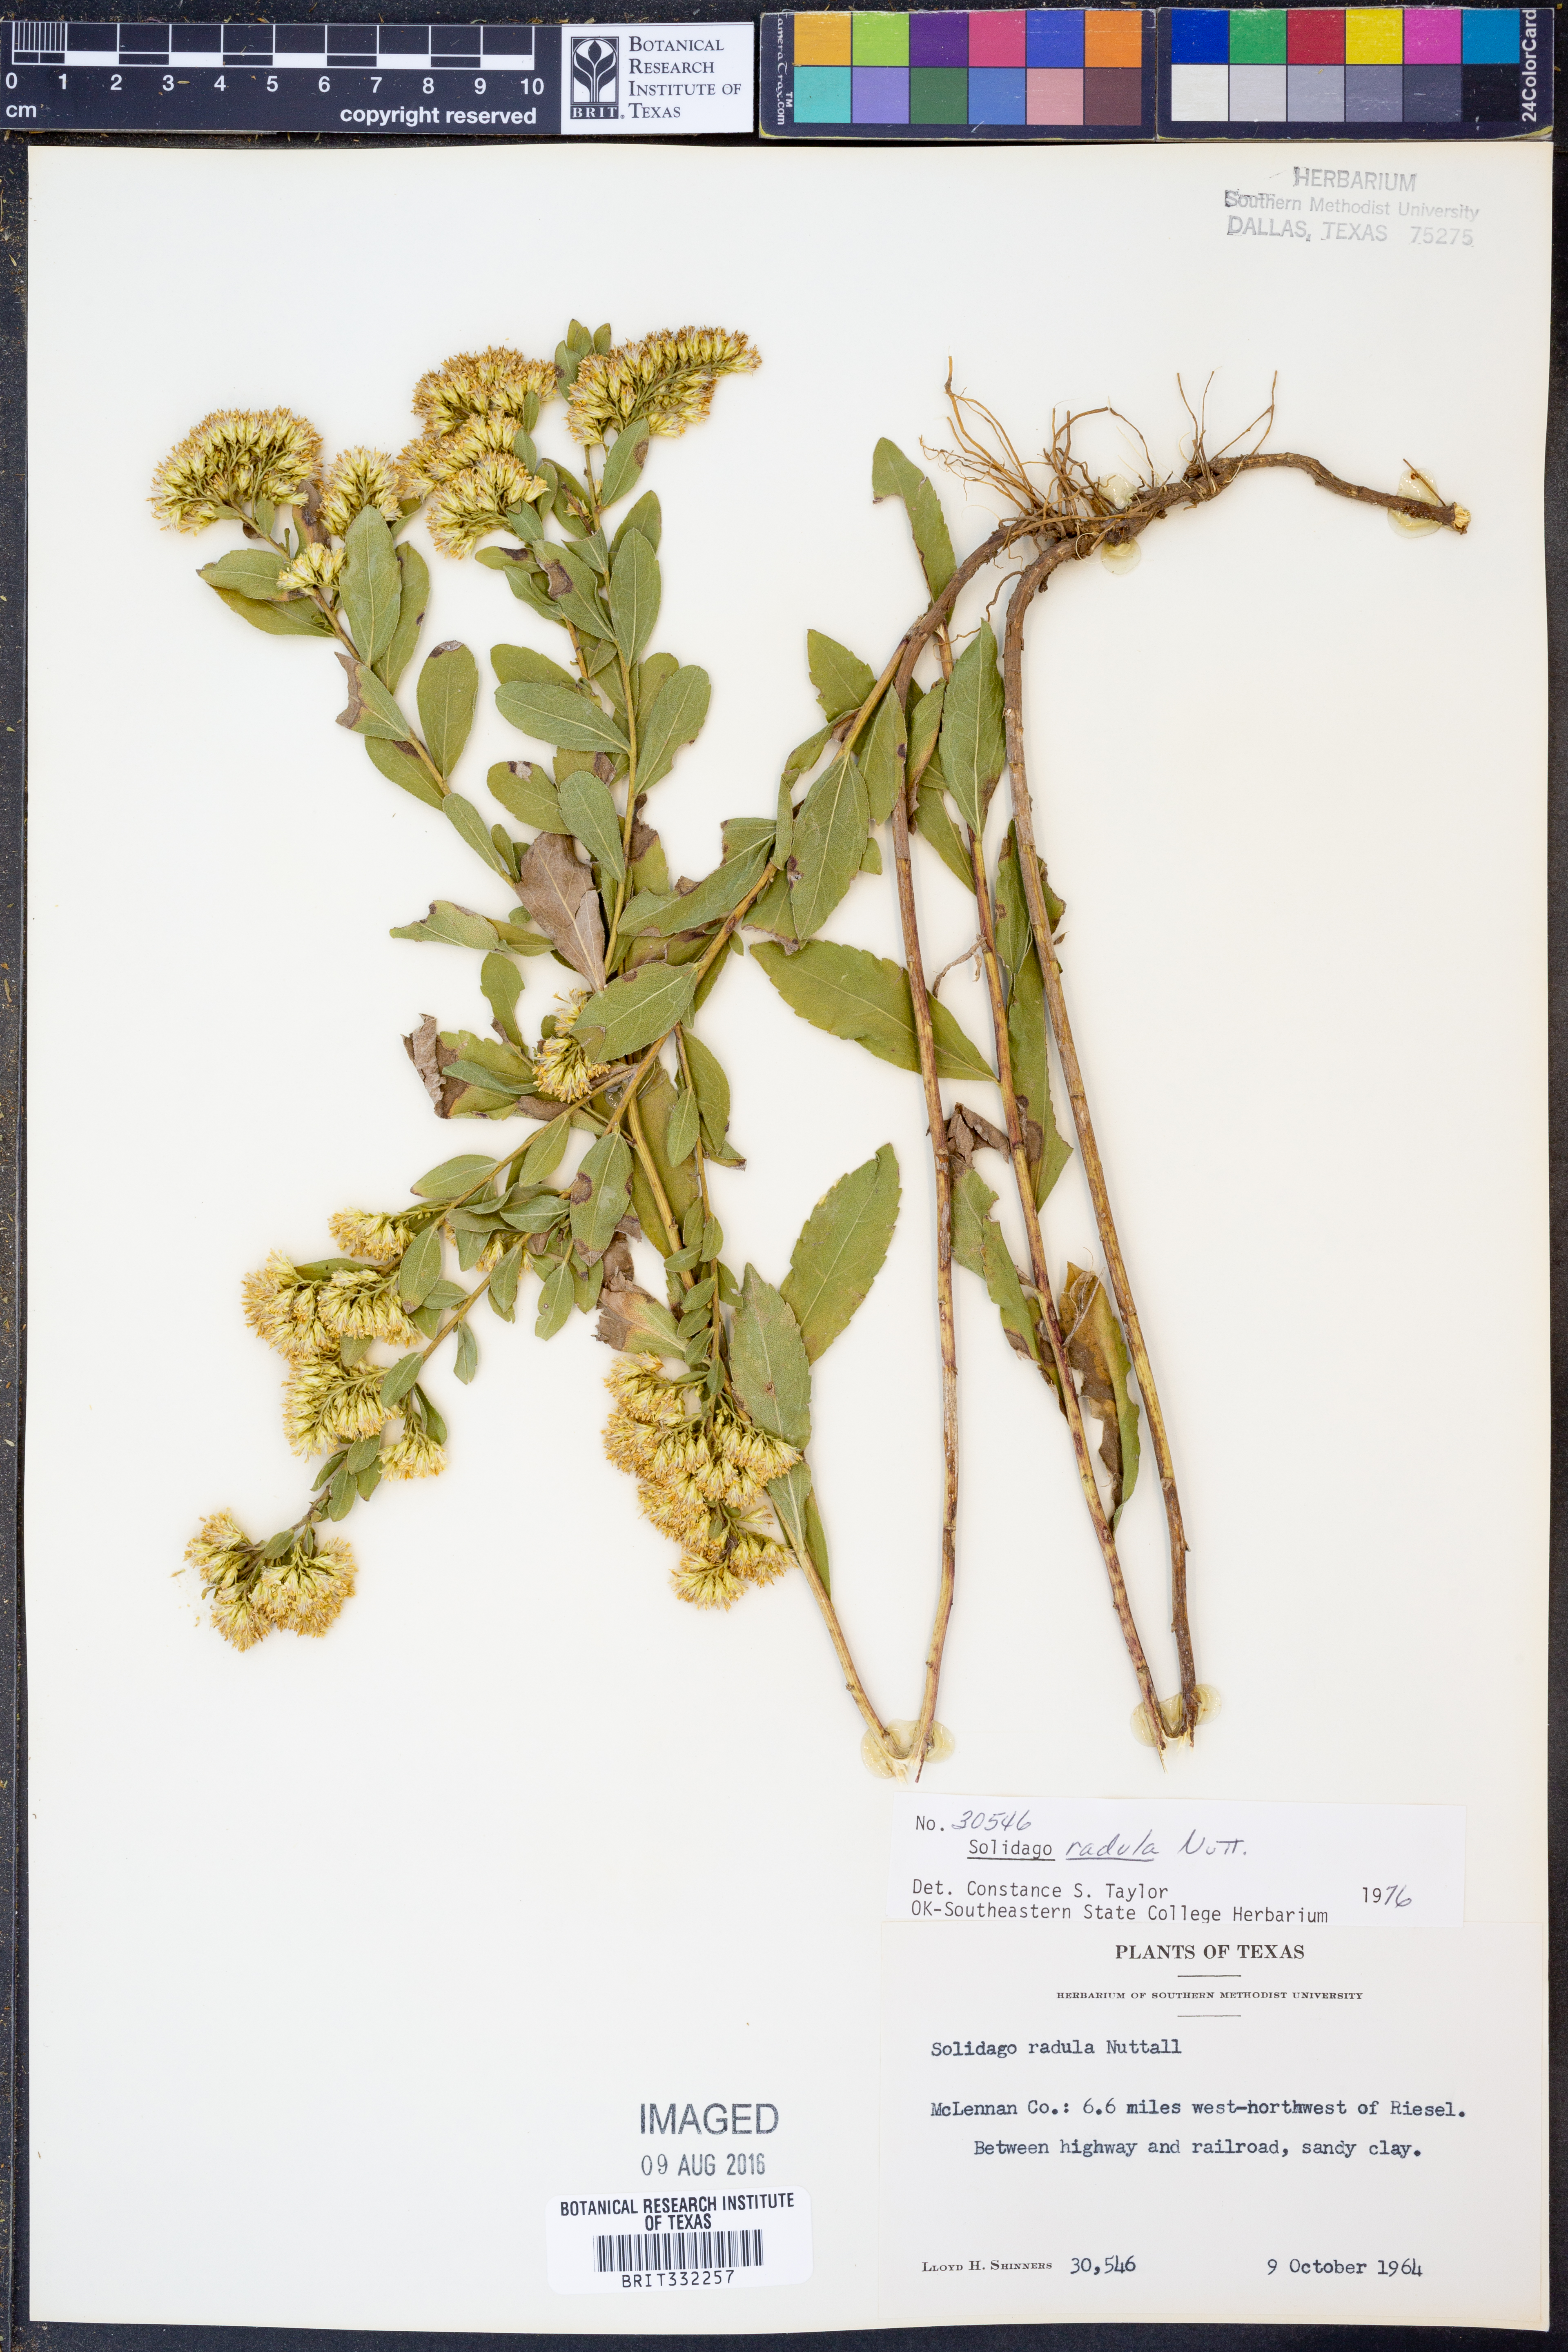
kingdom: Plantae
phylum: Tracheophyta
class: Magnoliopsida
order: Asterales
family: Asteraceae
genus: Solidago
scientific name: Solidago radula
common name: Western rough goldenrod
